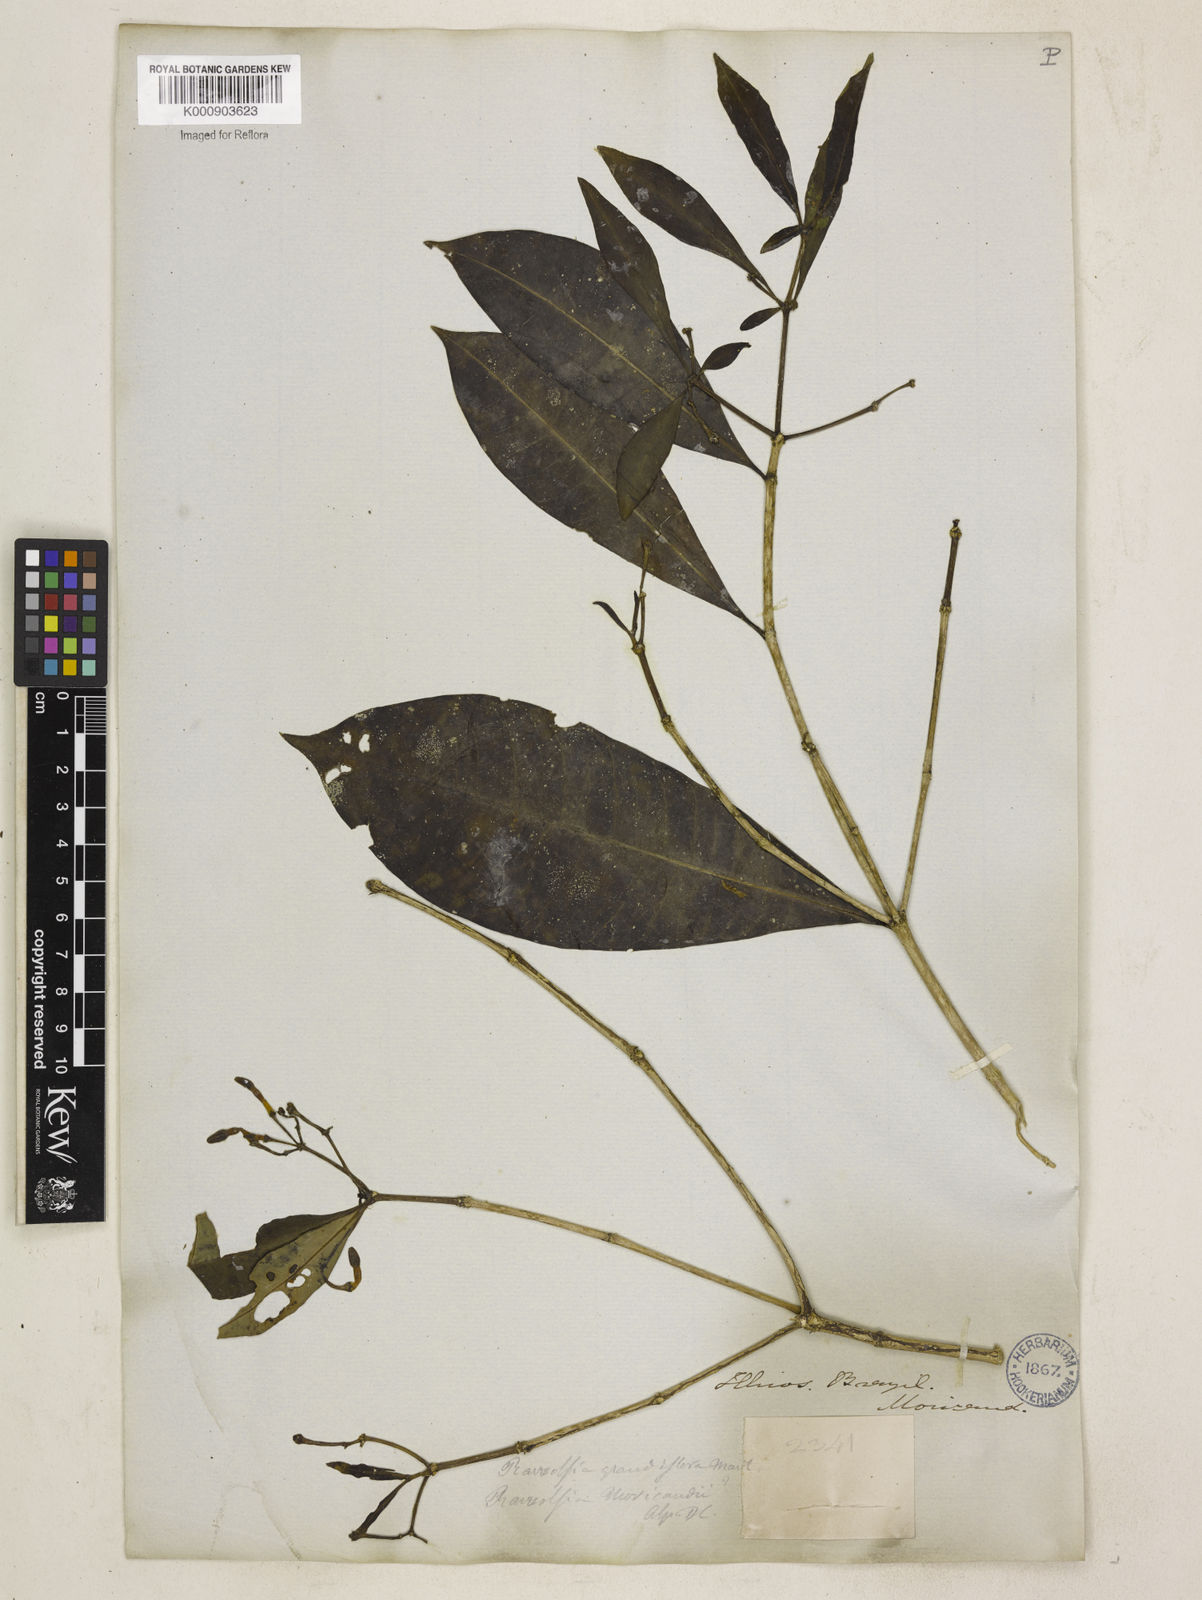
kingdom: Plantae
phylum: Tracheophyta
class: Magnoliopsida
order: Gentianales
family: Apocynaceae
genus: Rauvolfia
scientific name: Rauvolfia
